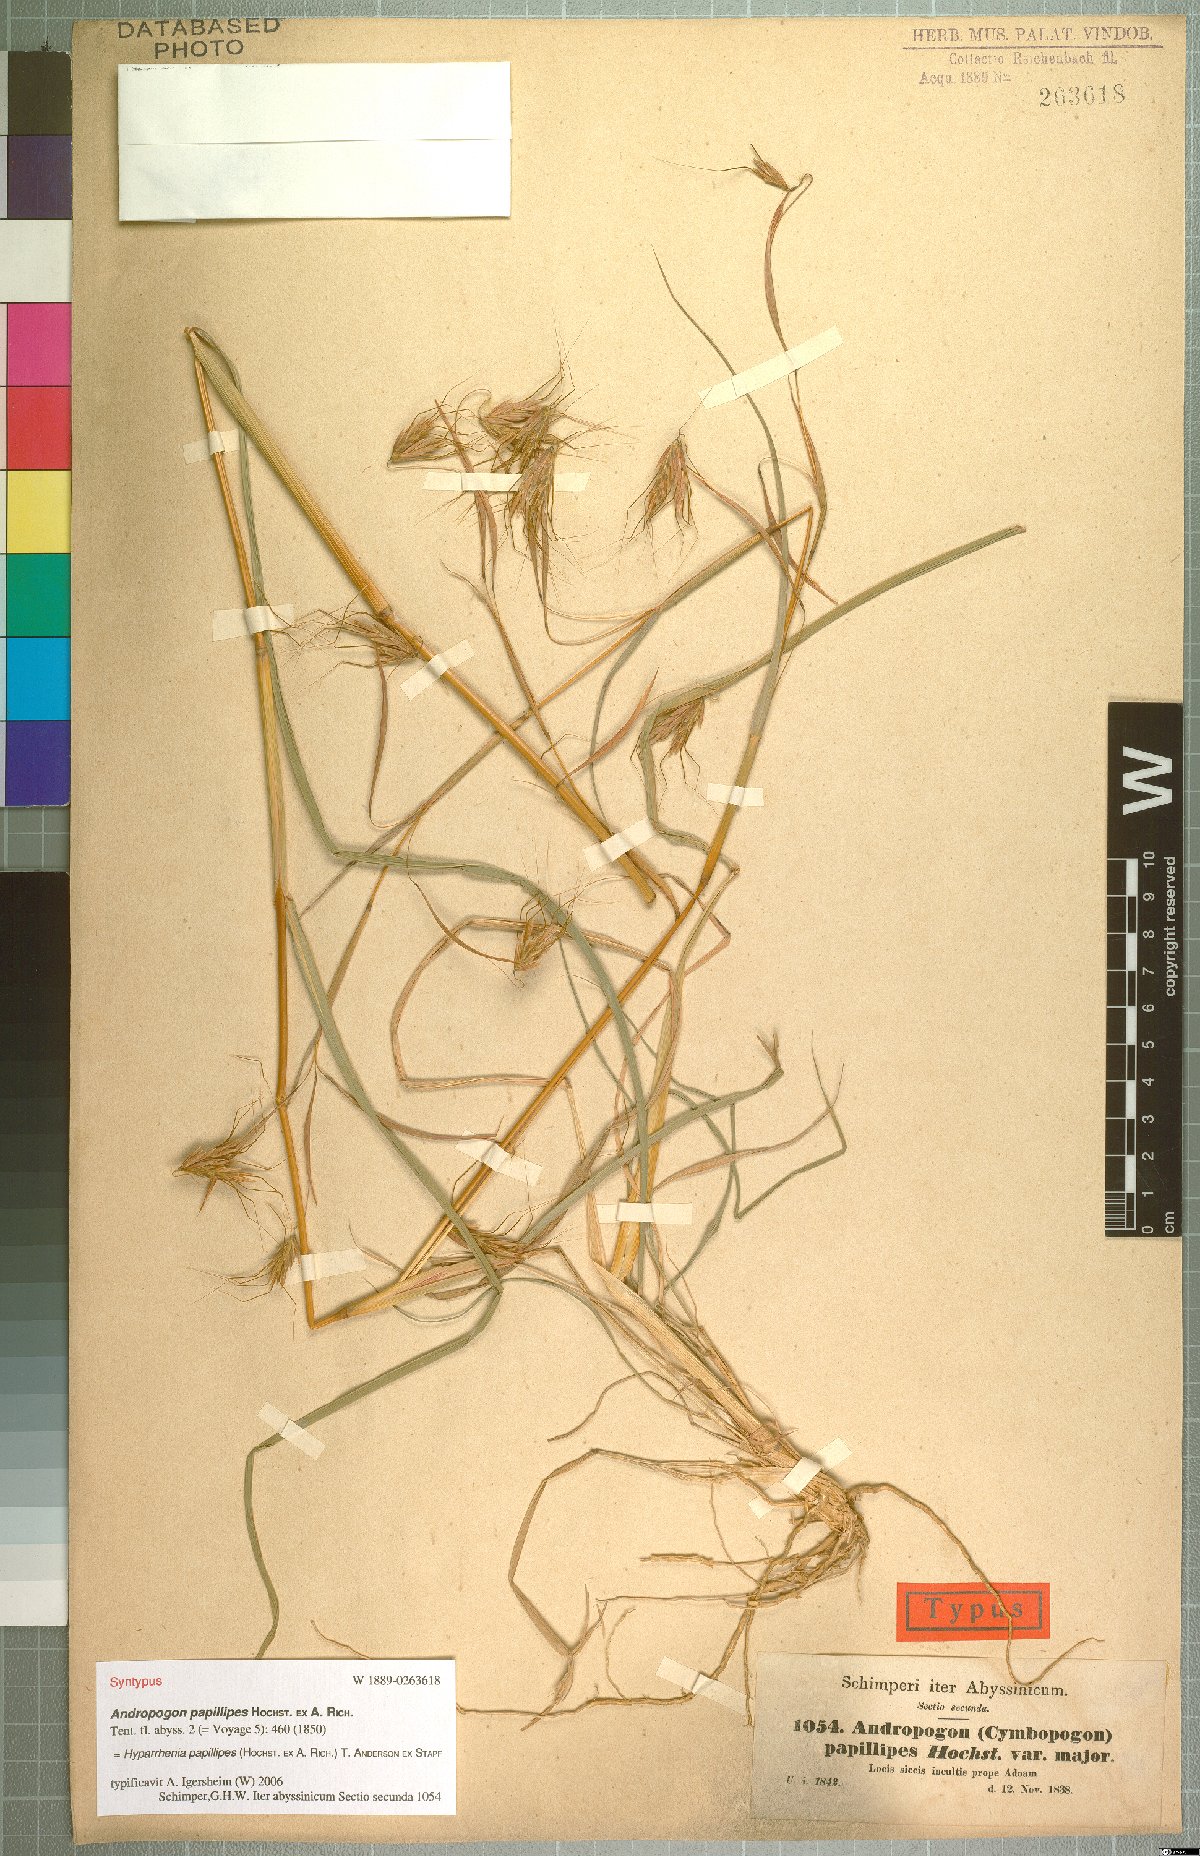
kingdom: Plantae
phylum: Tracheophyta
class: Liliopsida
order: Poales
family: Poaceae
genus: Hyparrhenia
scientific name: Hyparrhenia papillipes
